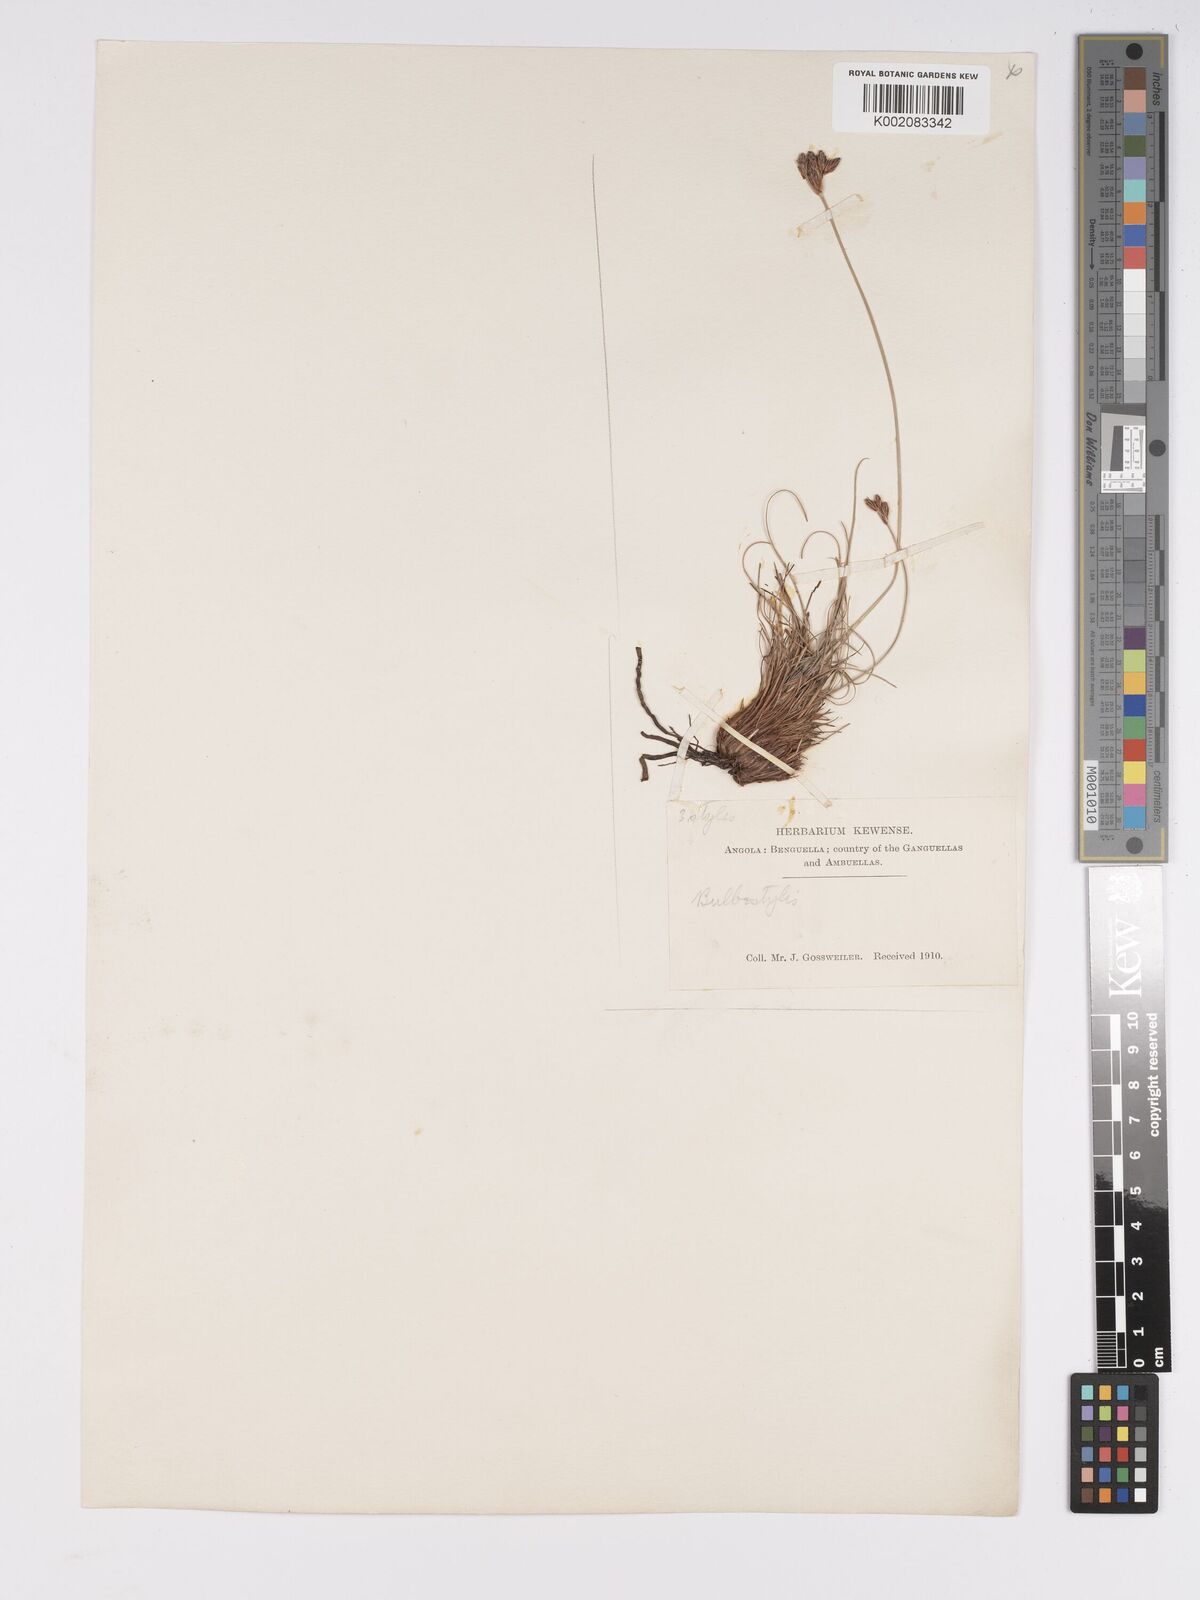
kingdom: Plantae
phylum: Tracheophyta
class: Liliopsida
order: Poales
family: Cyperaceae
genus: Bulbostylis
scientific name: Bulbostylis schoenoides
